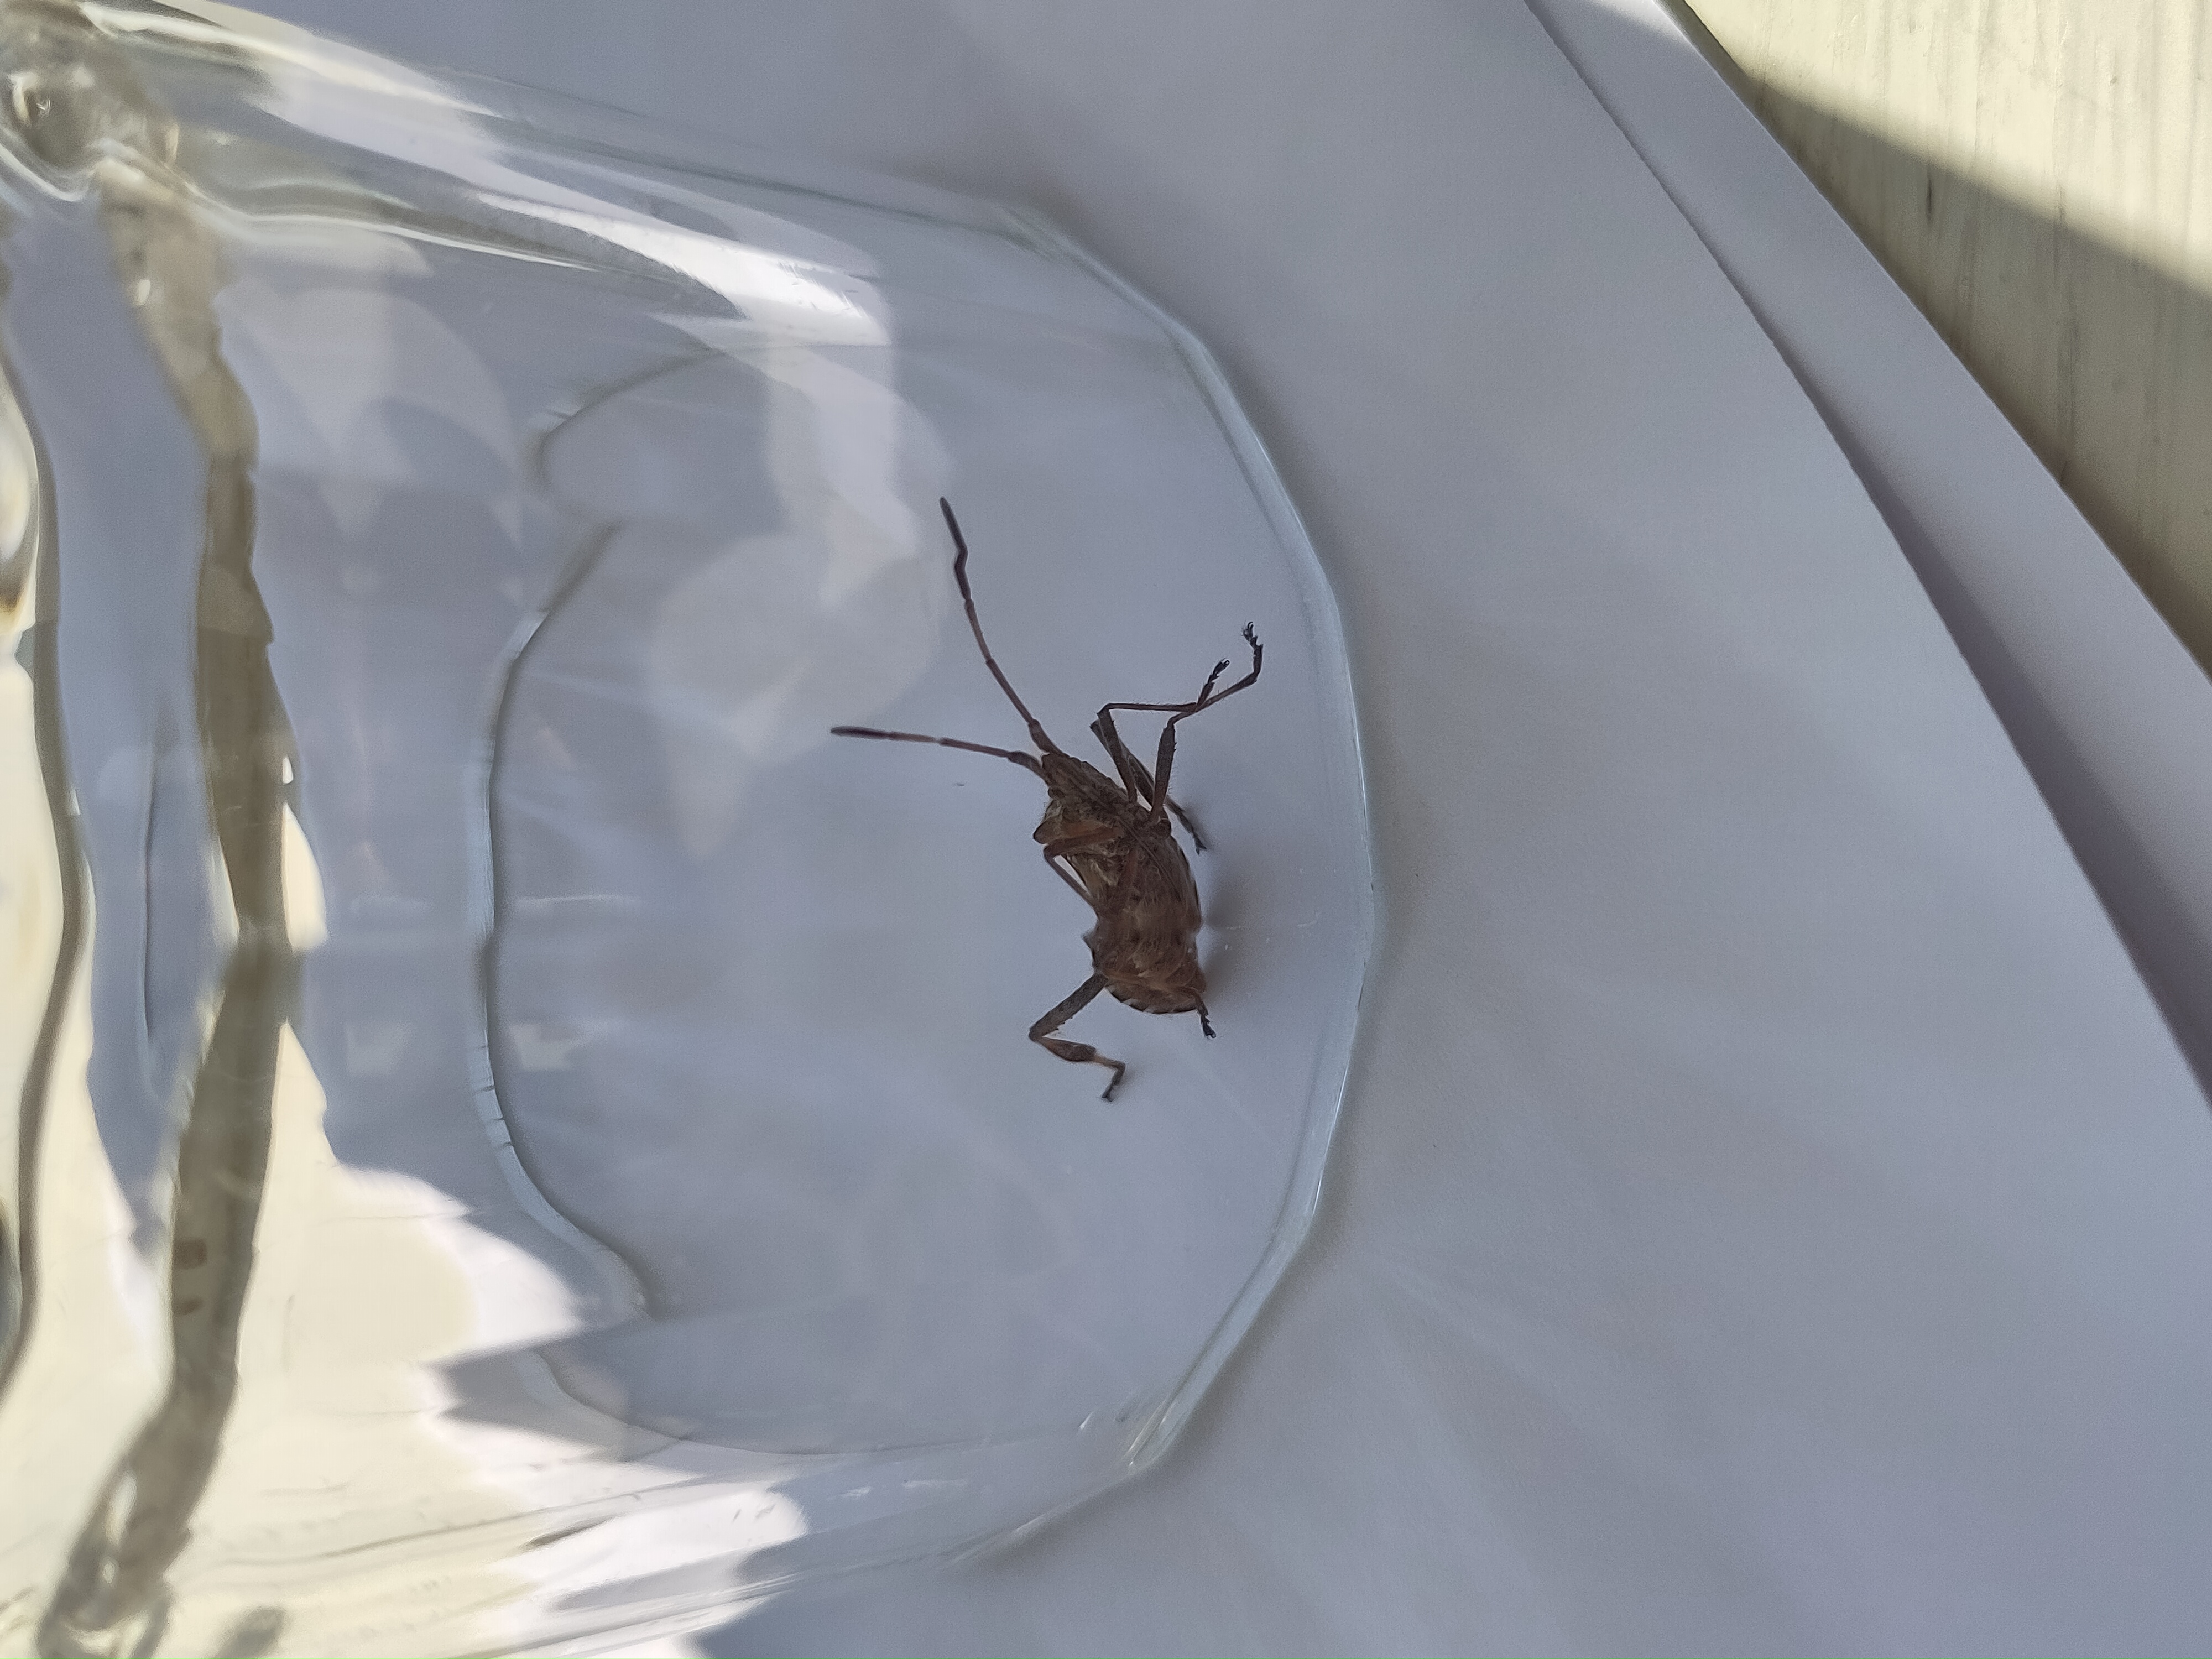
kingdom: Animalia
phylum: Arthropoda
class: Insecta
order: Hemiptera
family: Coreidae
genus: Leptoglossus
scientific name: Leptoglossus occidentalis
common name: Amerikansk fyrretæge
